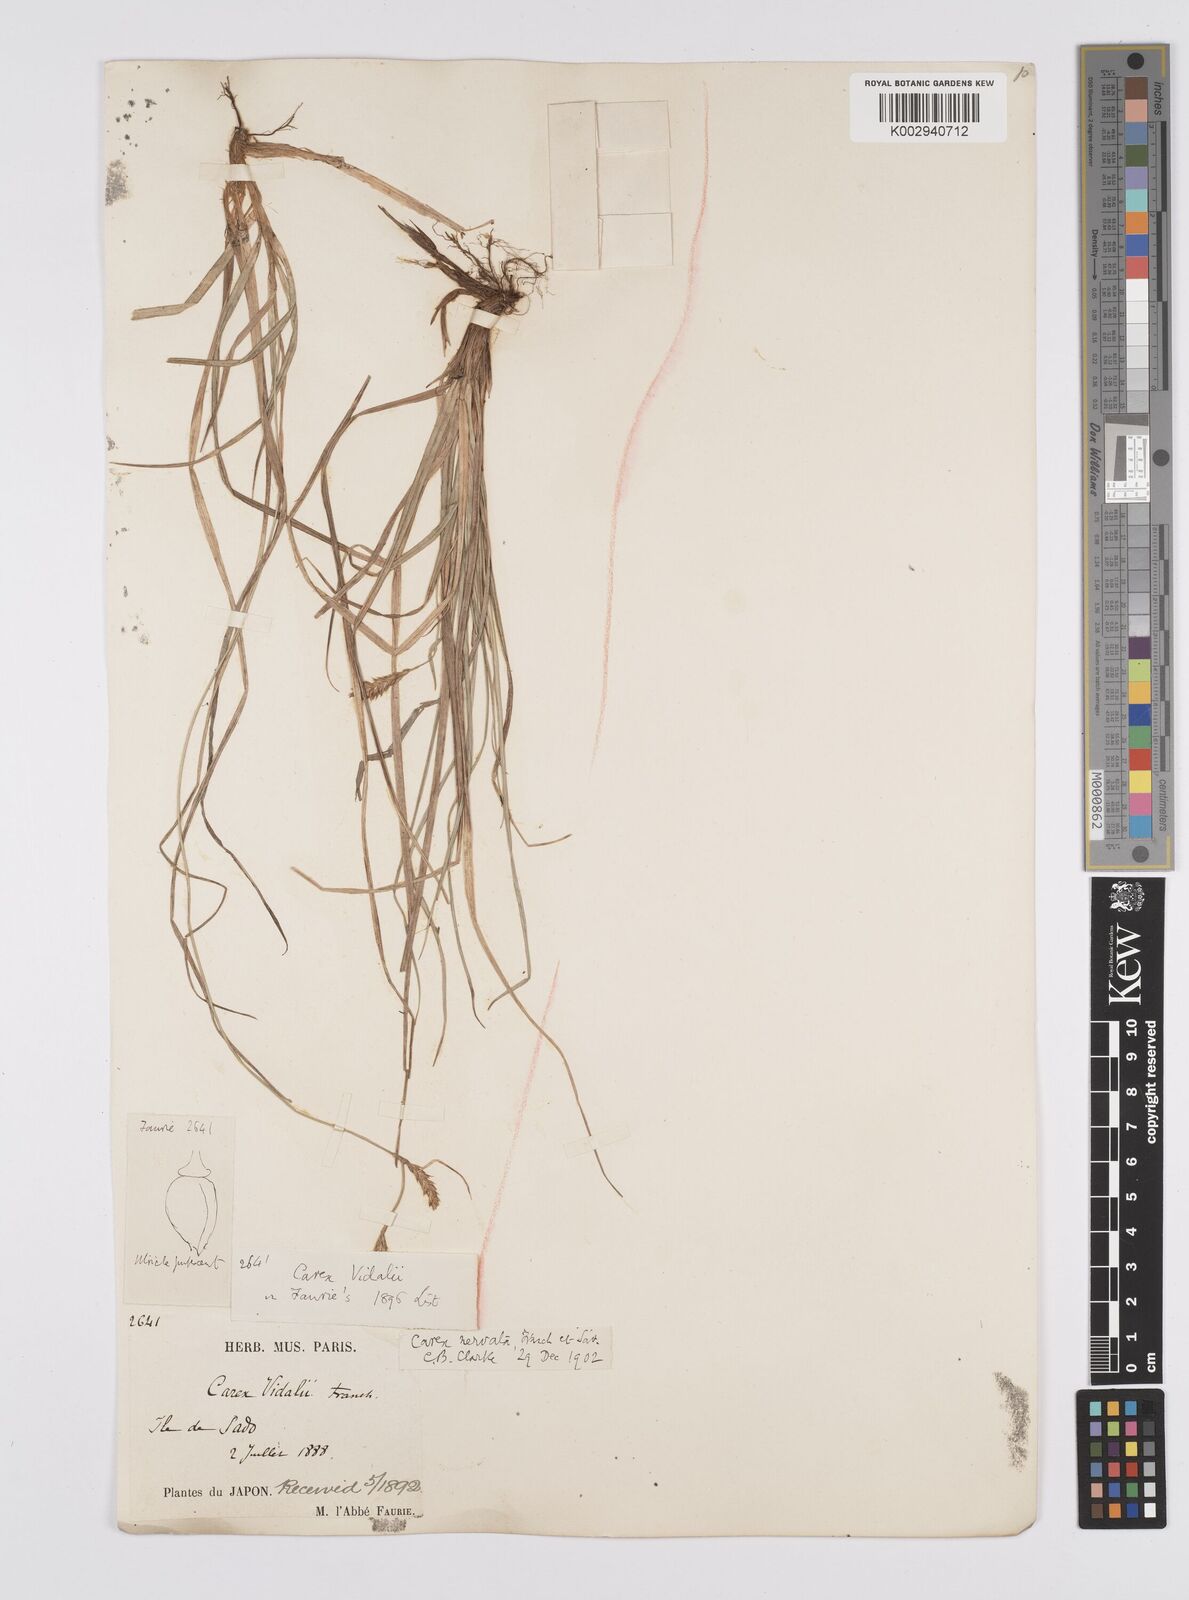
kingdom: Plantae
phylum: Tracheophyta
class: Liliopsida
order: Poales
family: Cyperaceae
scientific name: Cyperaceae
